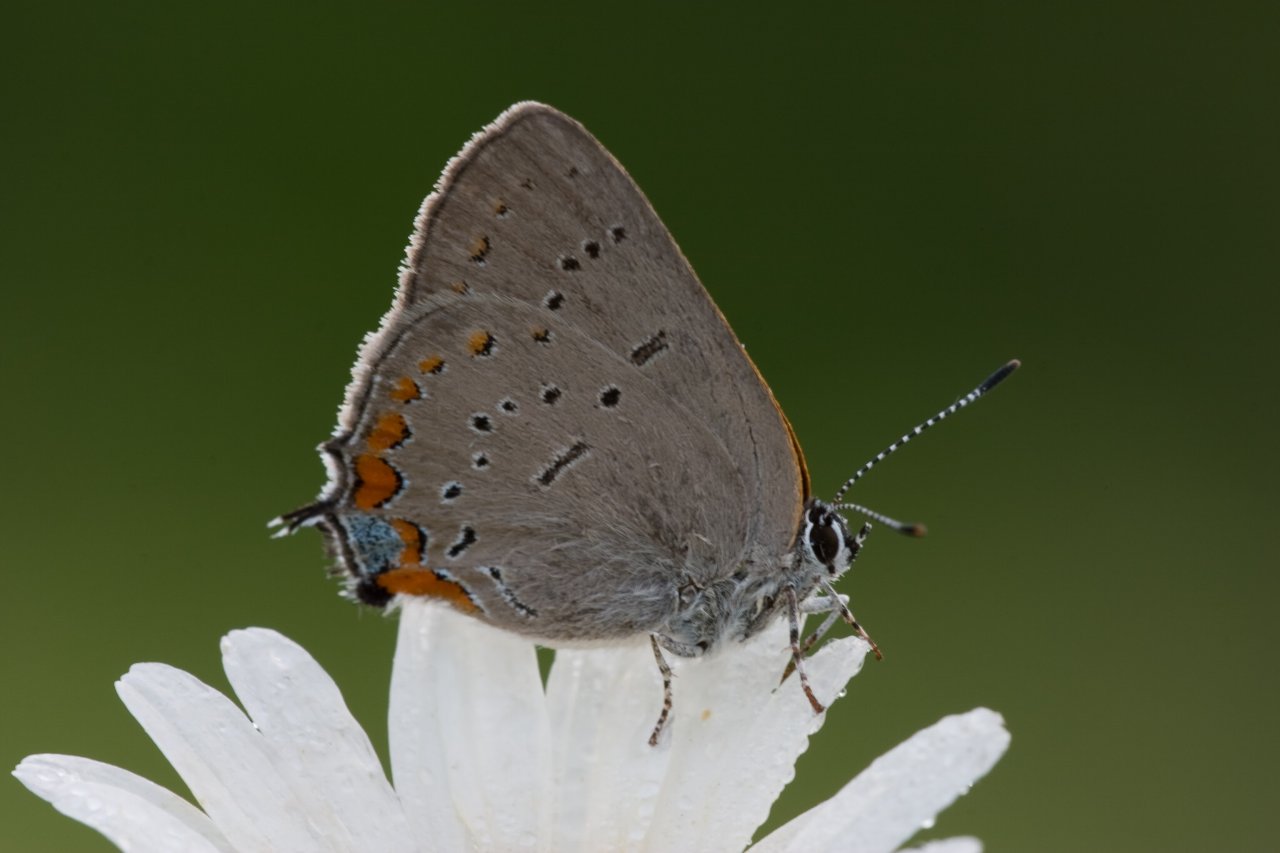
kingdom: Animalia
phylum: Arthropoda
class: Insecta
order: Lepidoptera
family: Lycaenidae
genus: Strymon
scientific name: Strymon acadica
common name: Acadian Hairstreak
